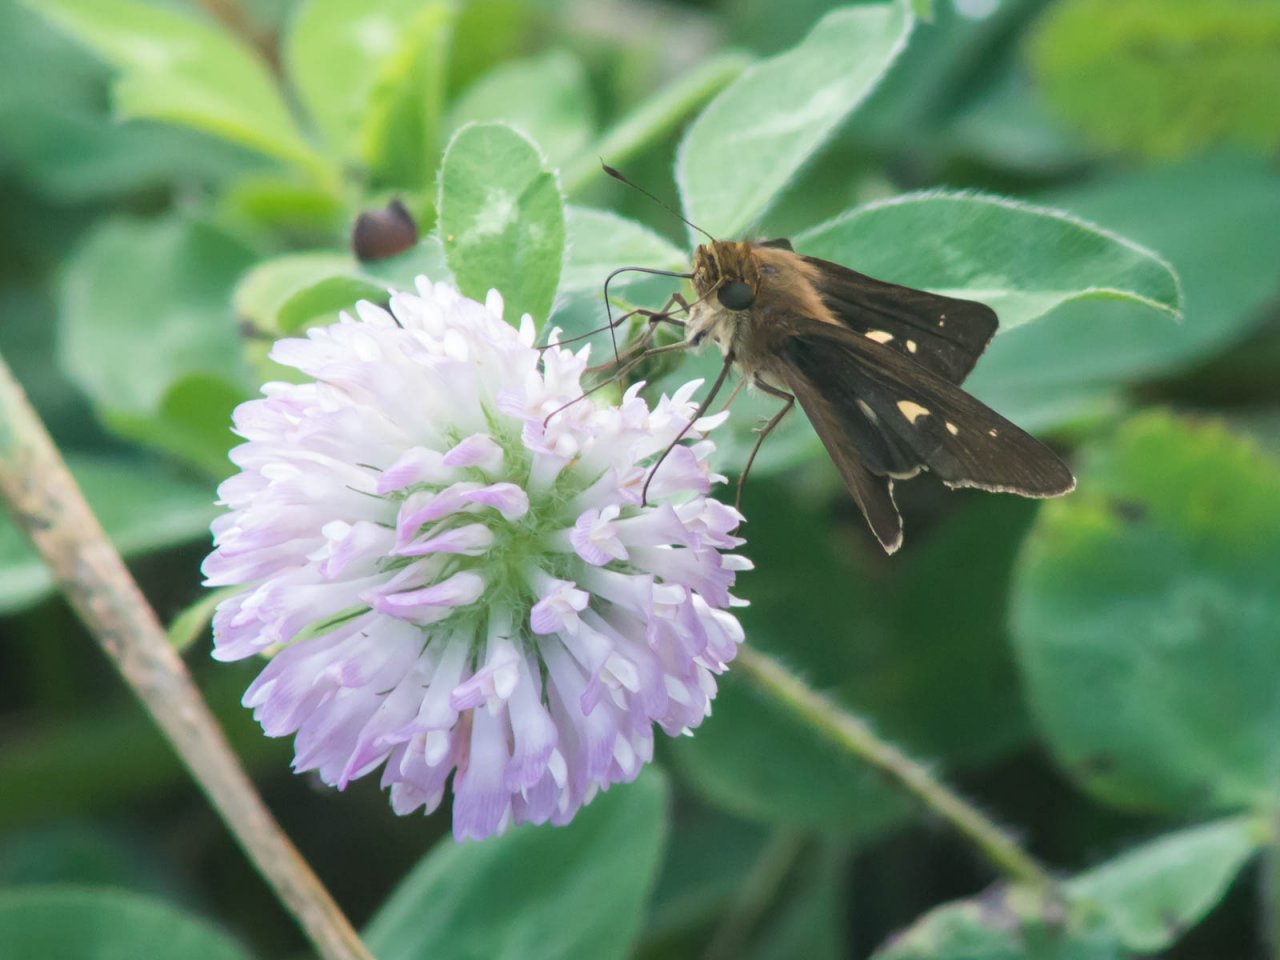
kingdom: Animalia
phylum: Arthropoda
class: Insecta
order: Lepidoptera
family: Hesperiidae
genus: Panoquina
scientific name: Panoquina ocola
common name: Ocola Skipper
